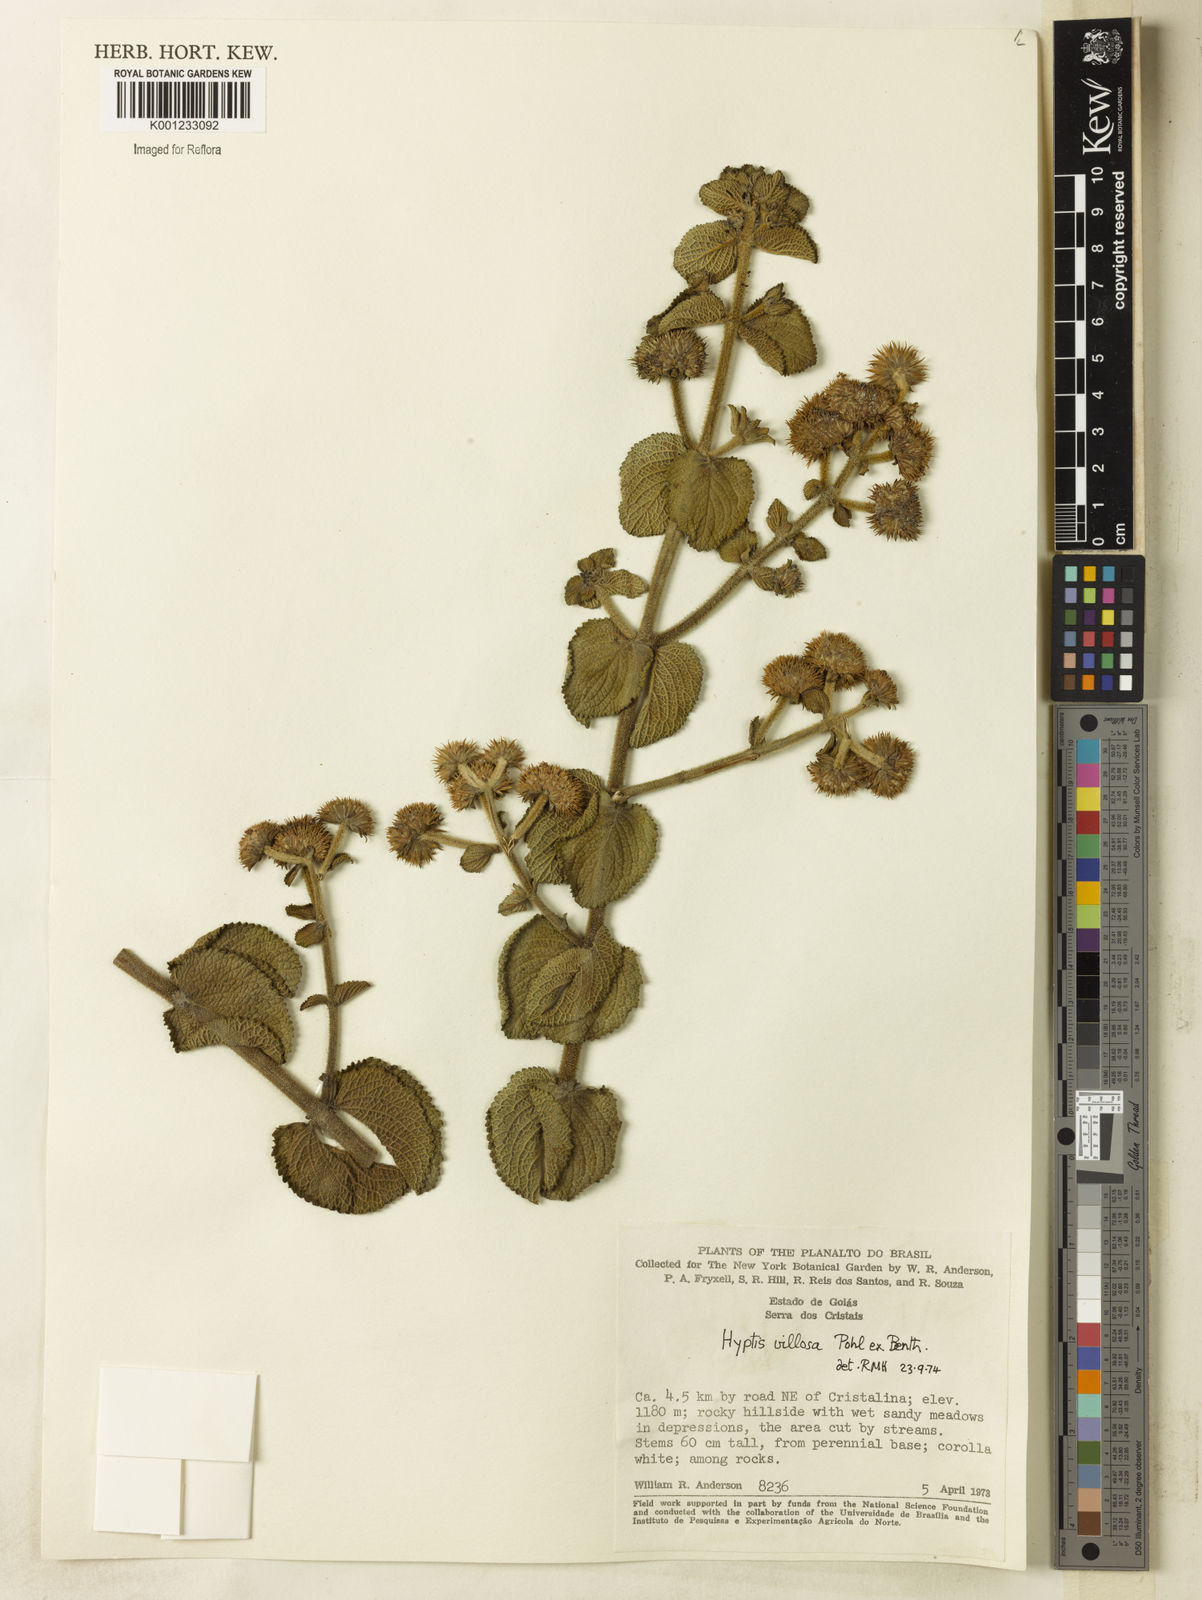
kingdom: Plantae
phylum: Tracheophyta
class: Magnoliopsida
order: Lamiales
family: Lamiaceae
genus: Hyptis
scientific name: Hyptis villosa
